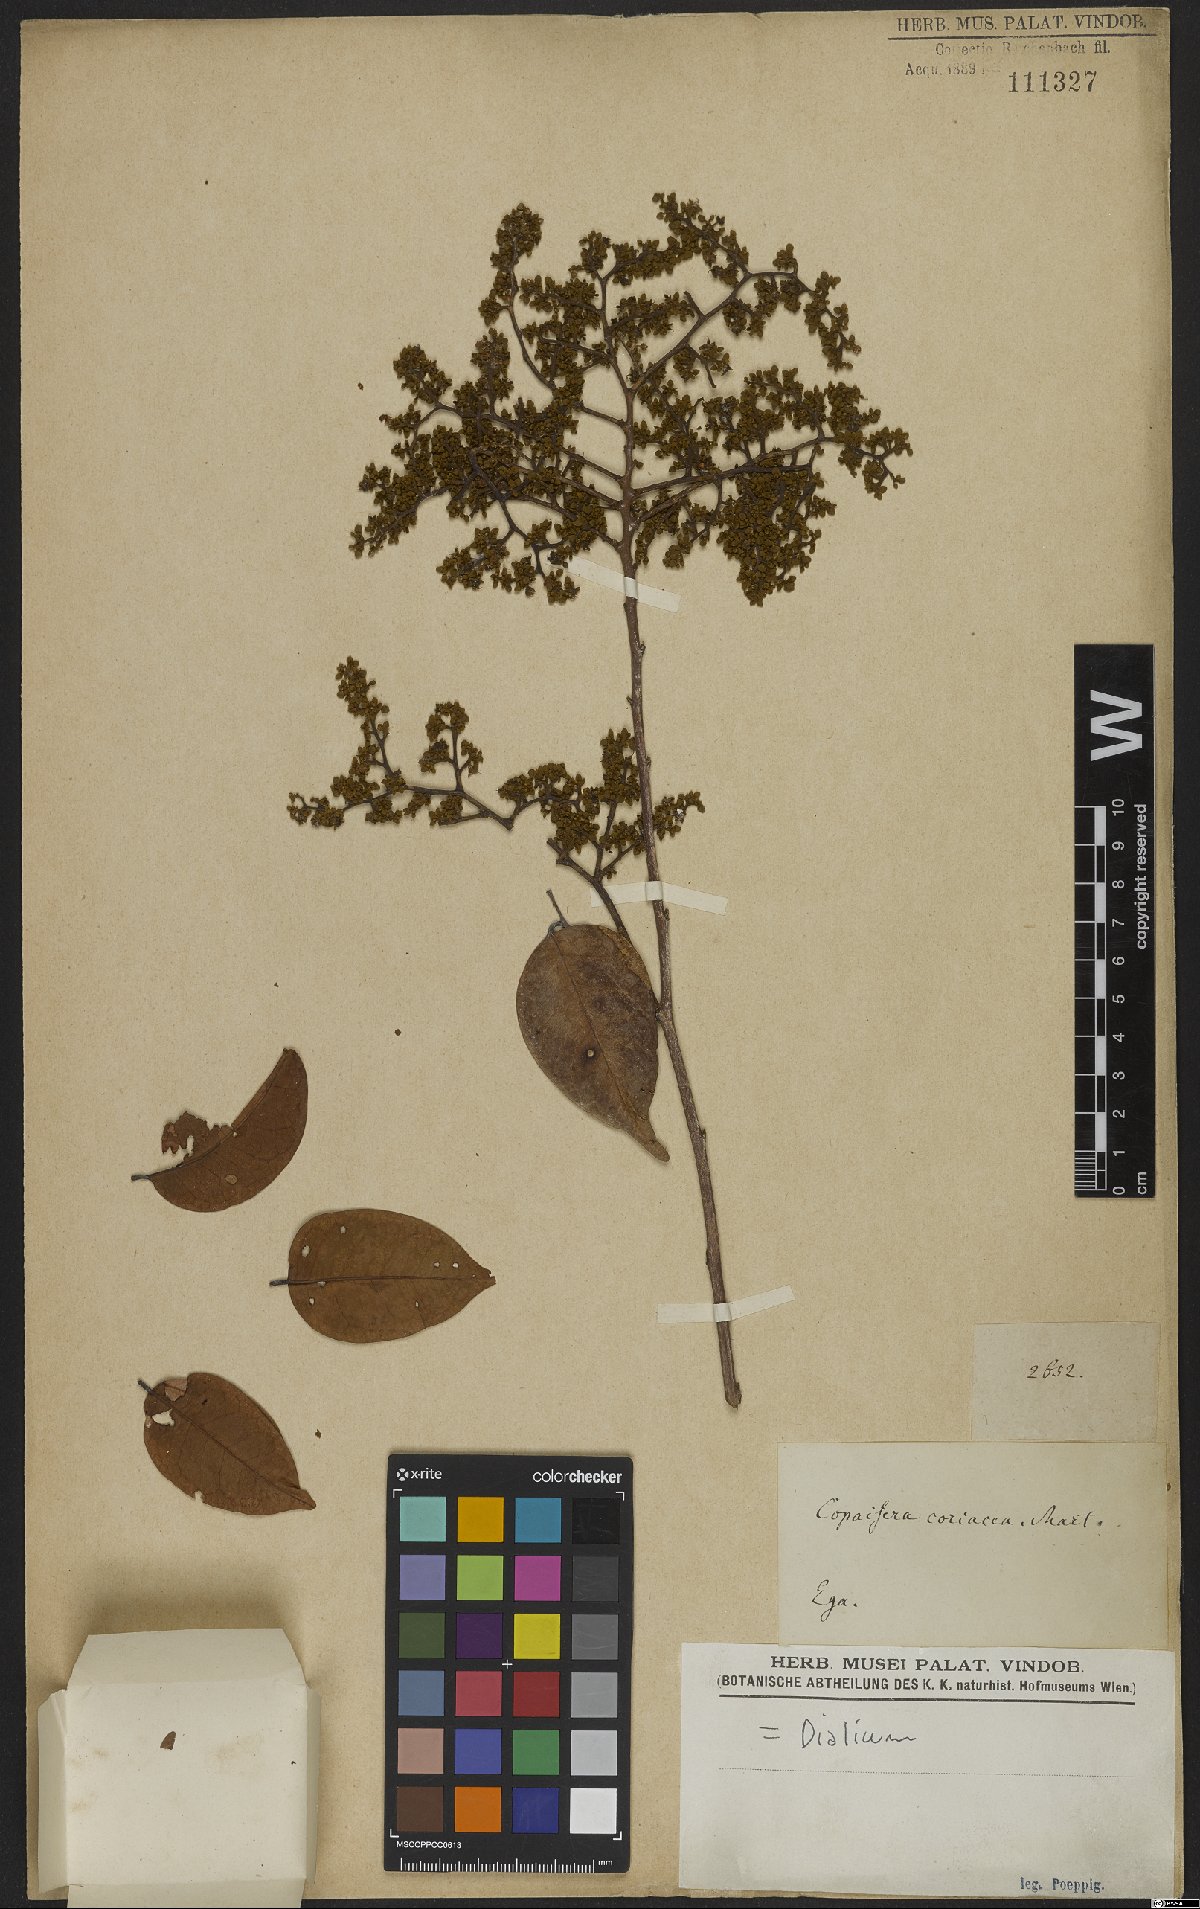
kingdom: Plantae
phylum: Tracheophyta
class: Magnoliopsida
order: Fabales
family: Fabaceae
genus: Dialium
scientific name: Dialium
